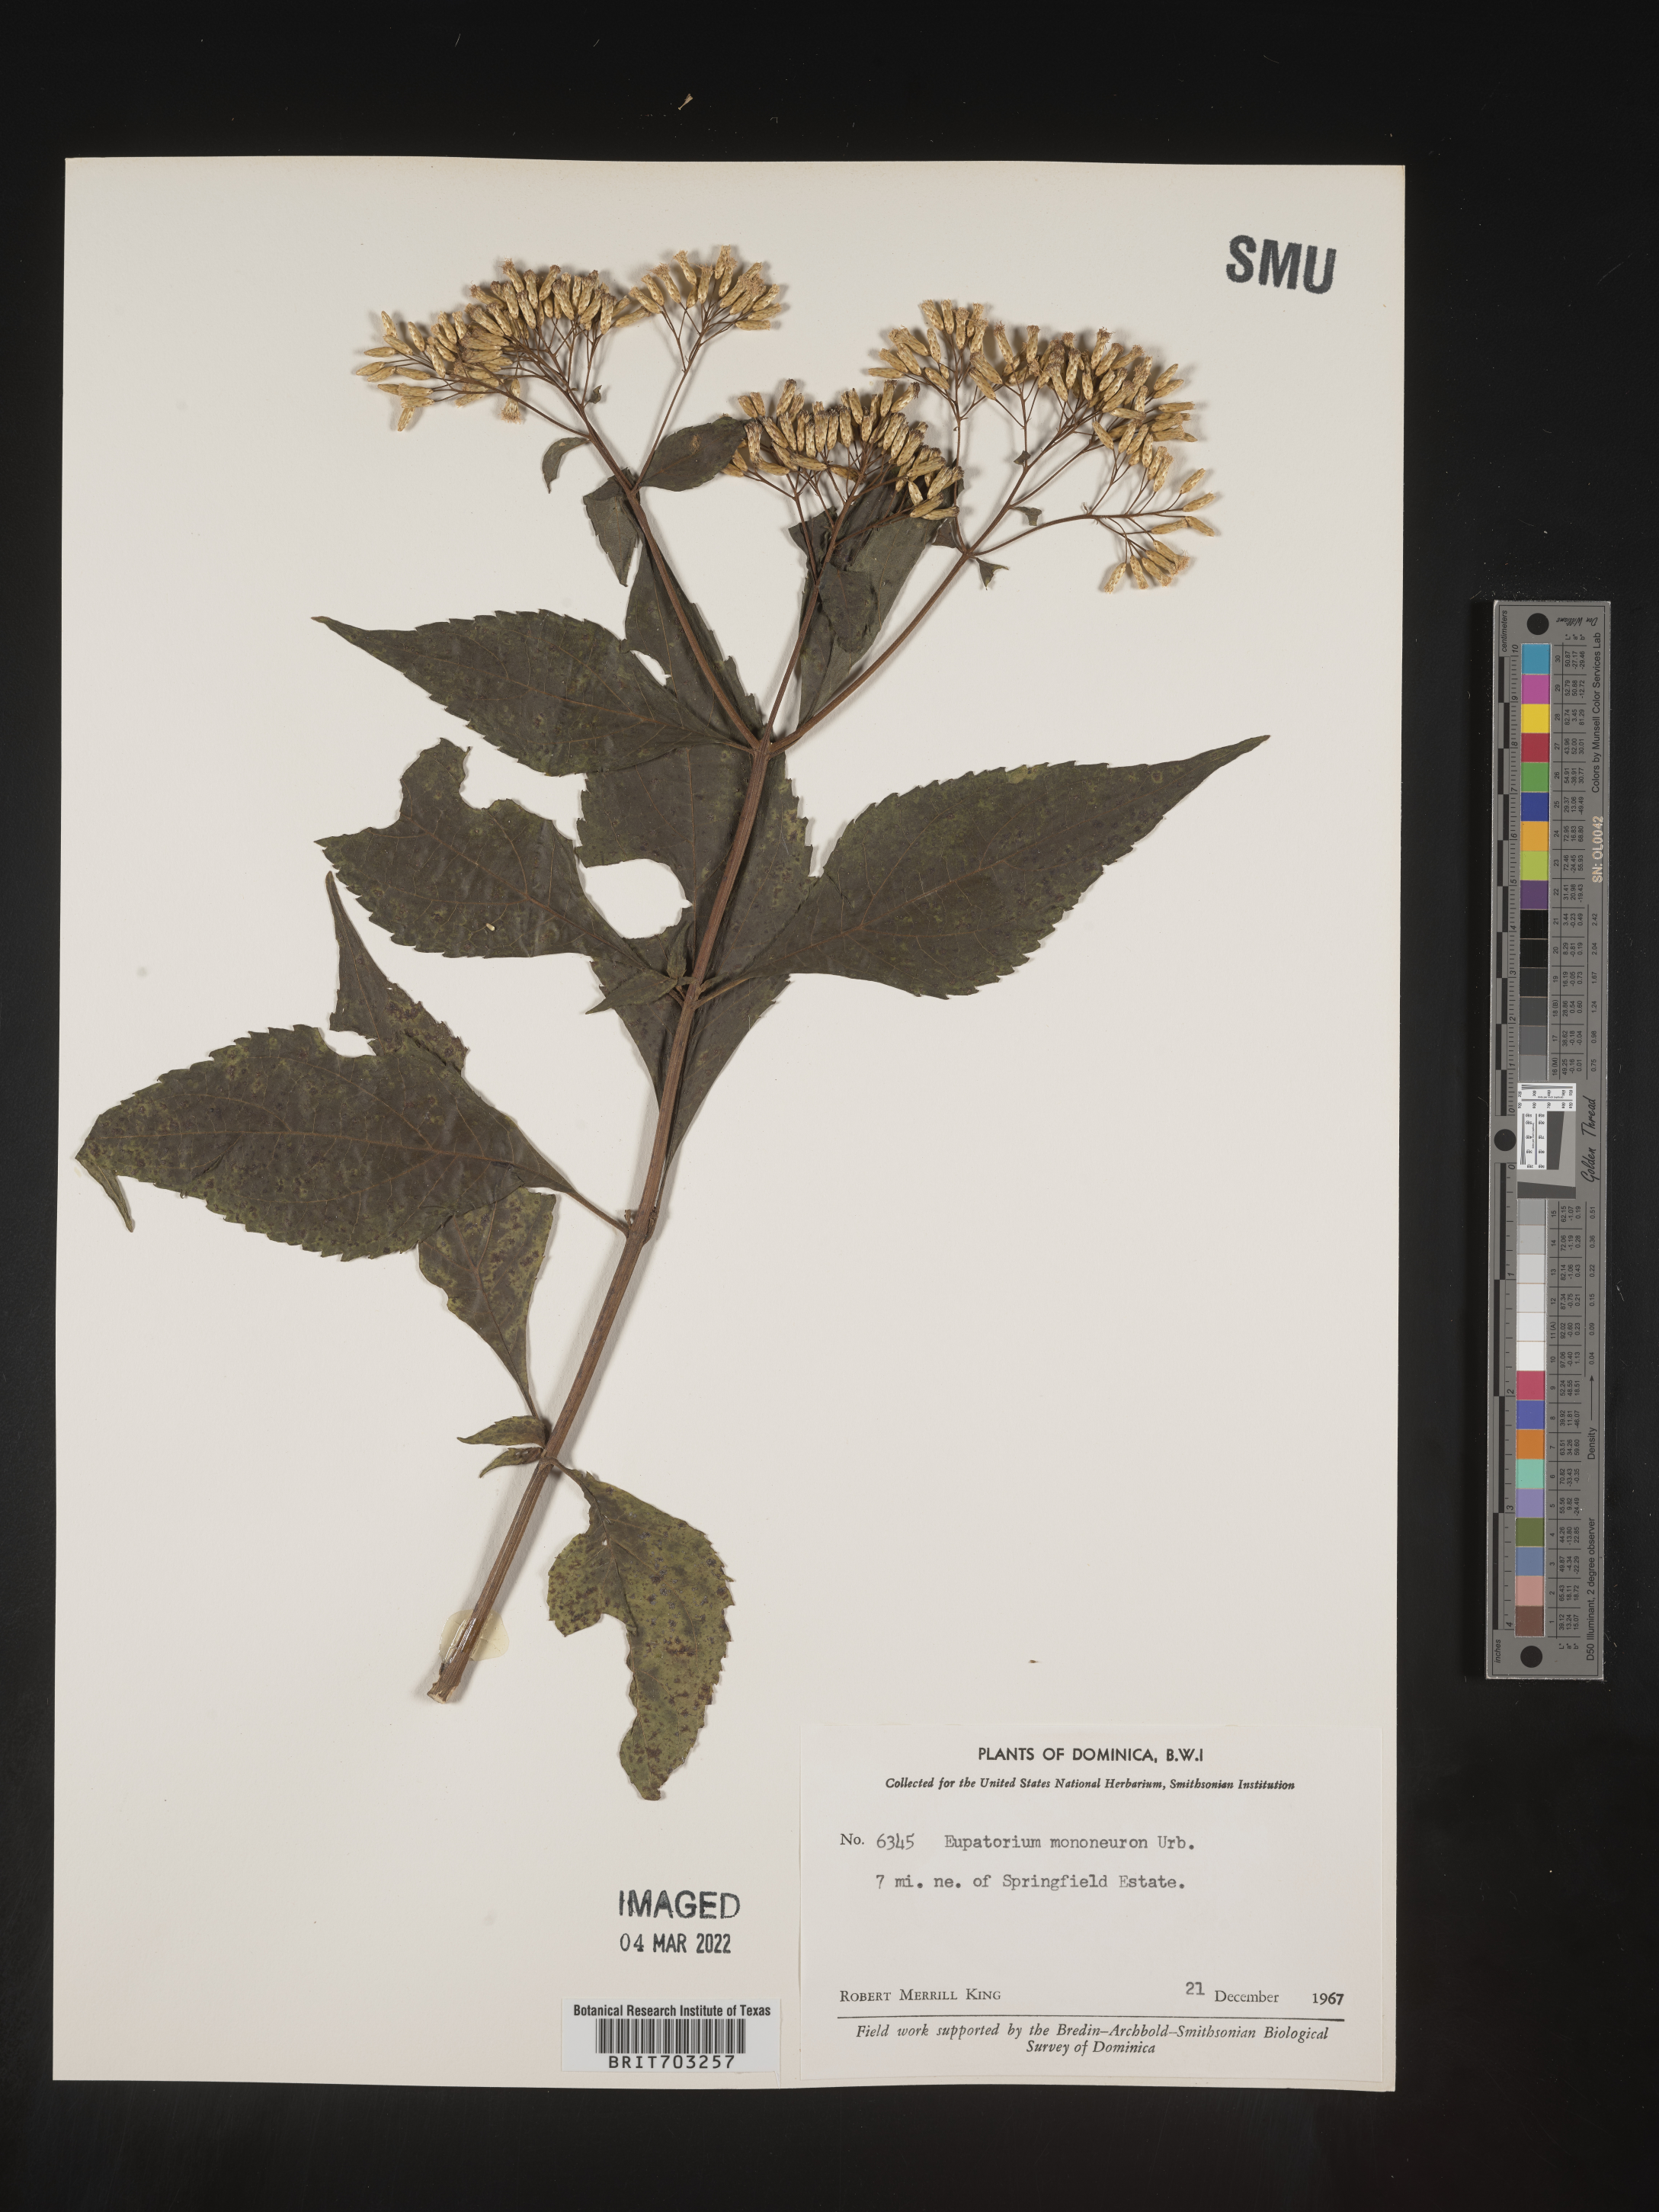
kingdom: Plantae
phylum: Tracheophyta
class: Magnoliopsida
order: Asterales
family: Asteraceae
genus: Eupatorium
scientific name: Eupatorium
